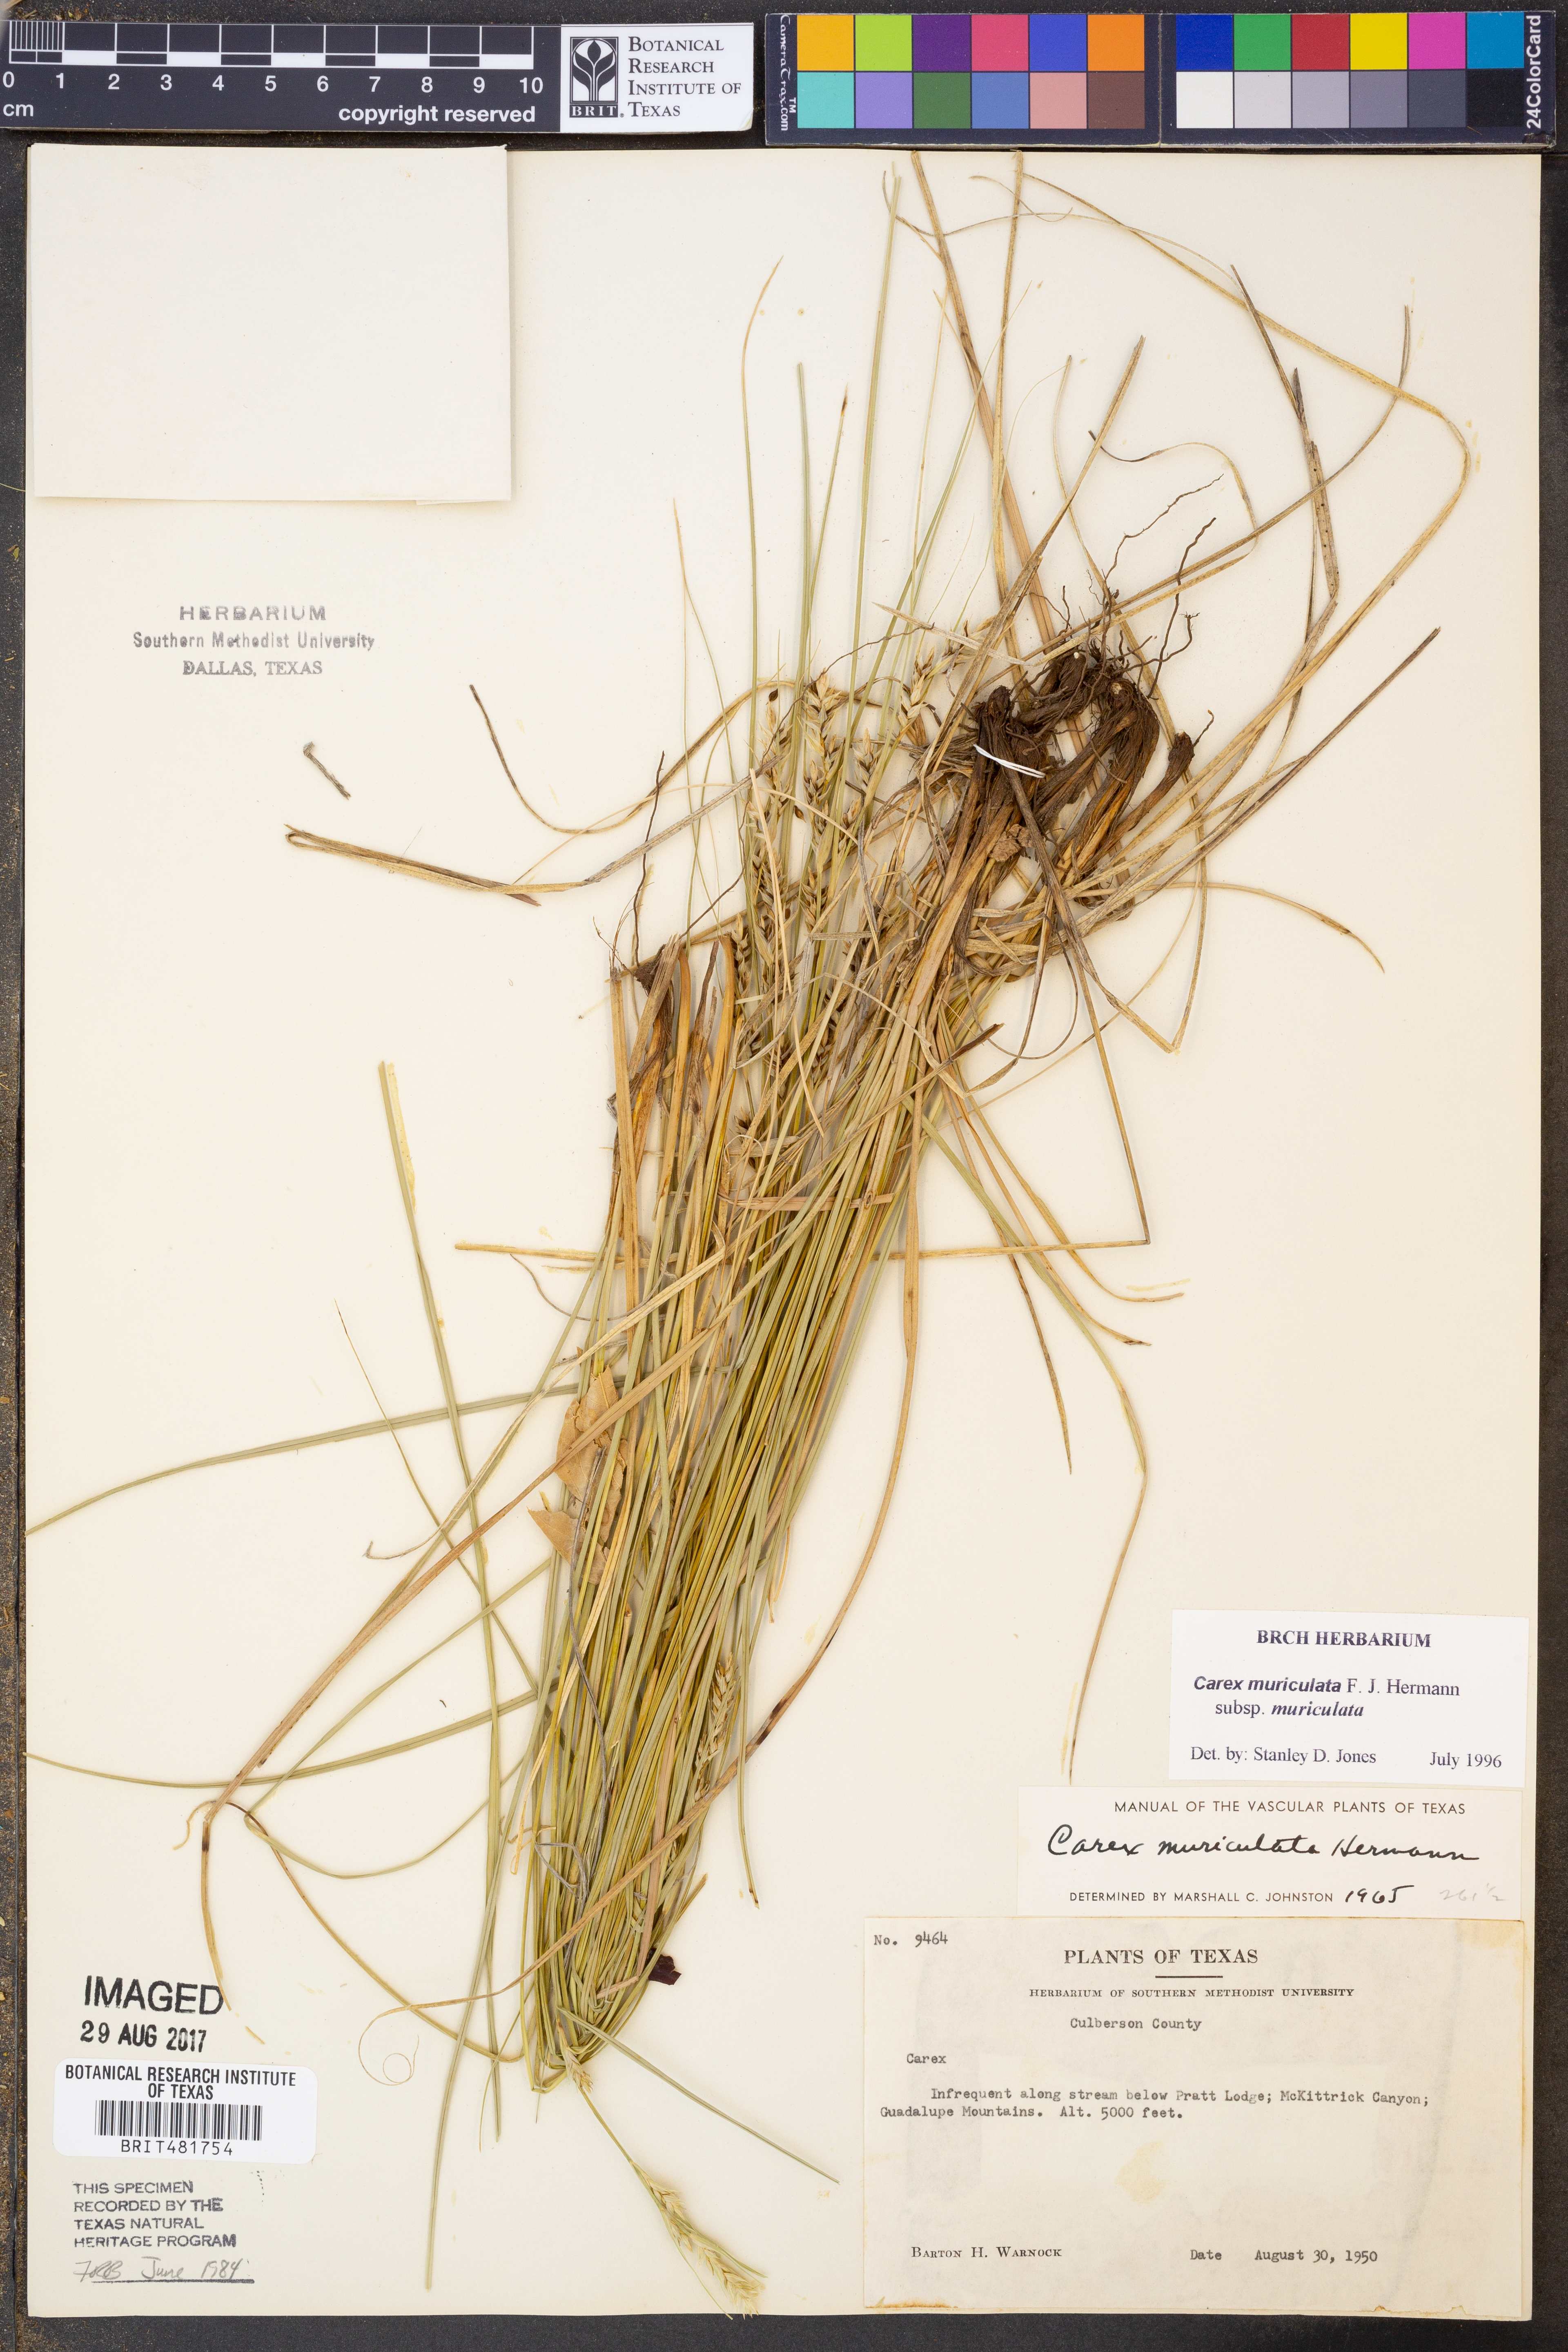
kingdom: Plantae
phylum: Tracheophyta
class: Liliopsida
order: Poales
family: Cyperaceae
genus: Carex
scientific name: Carex muricata
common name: Rough sedge
